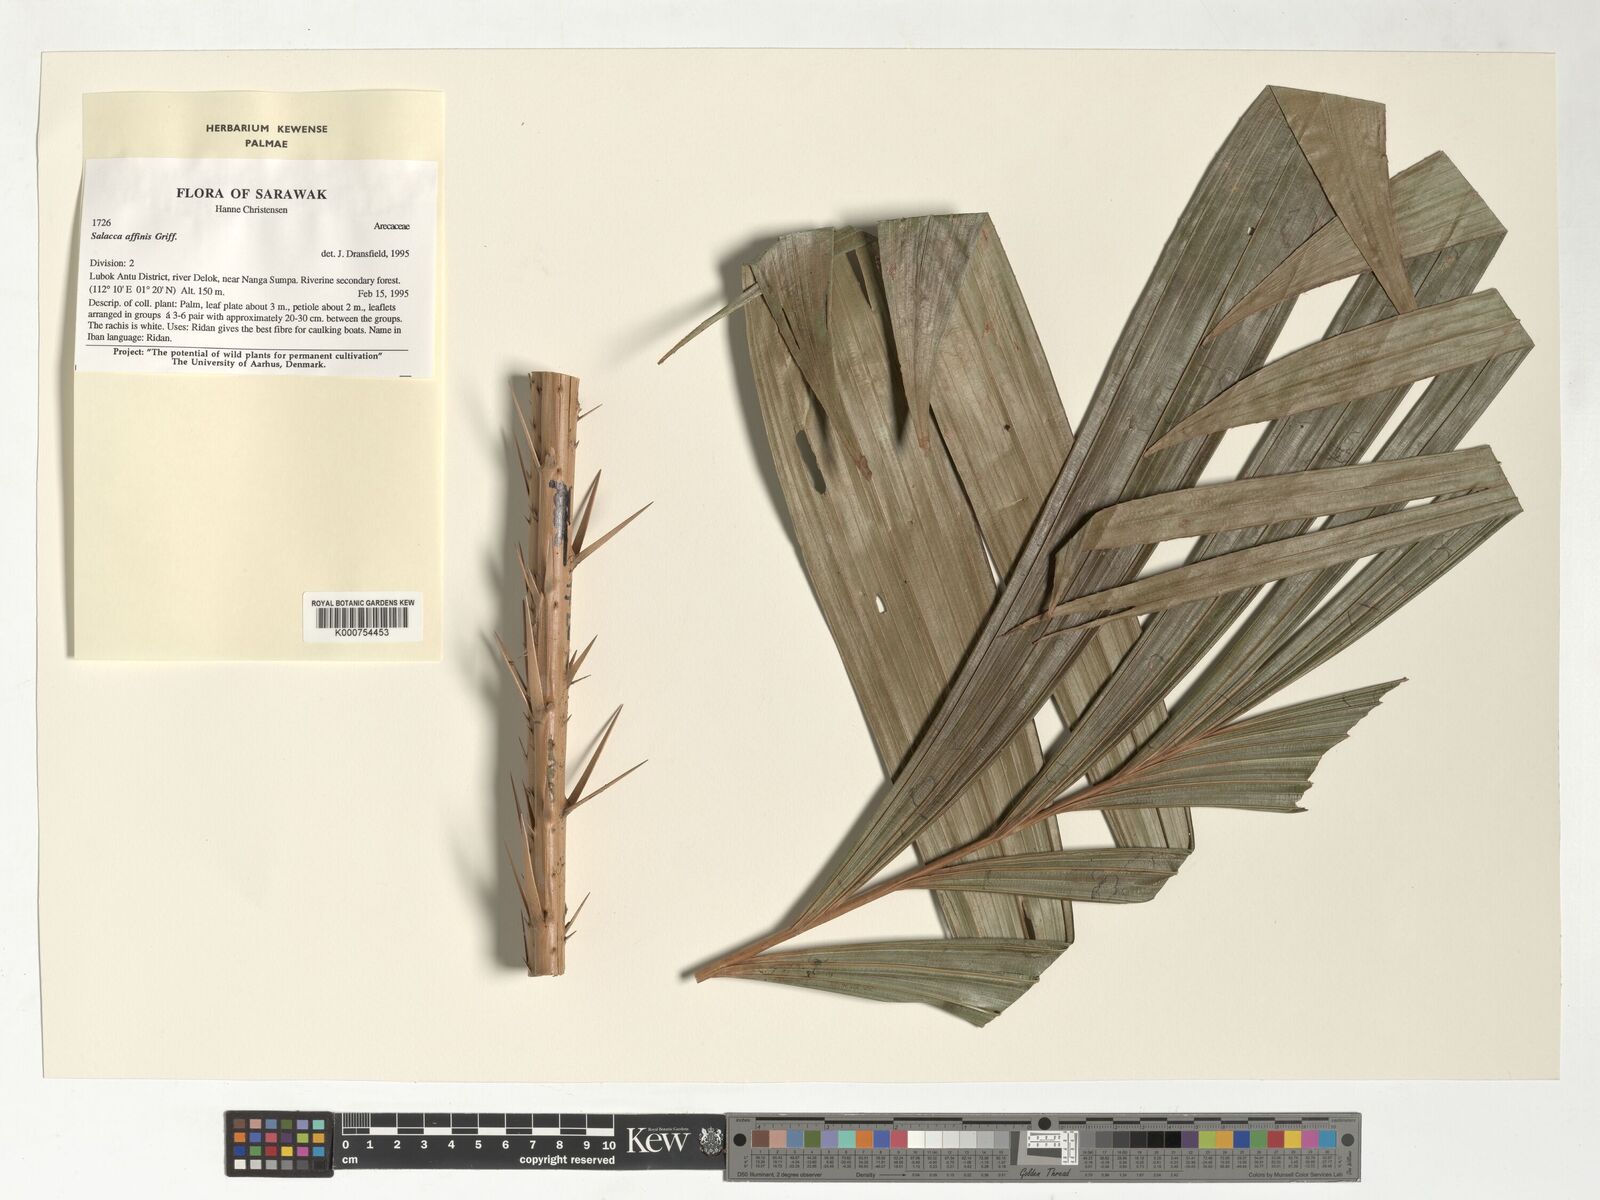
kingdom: Plantae
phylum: Tracheophyta
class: Liliopsida
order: Arecales
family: Arecaceae
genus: Salacca
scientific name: Salacca affinis
